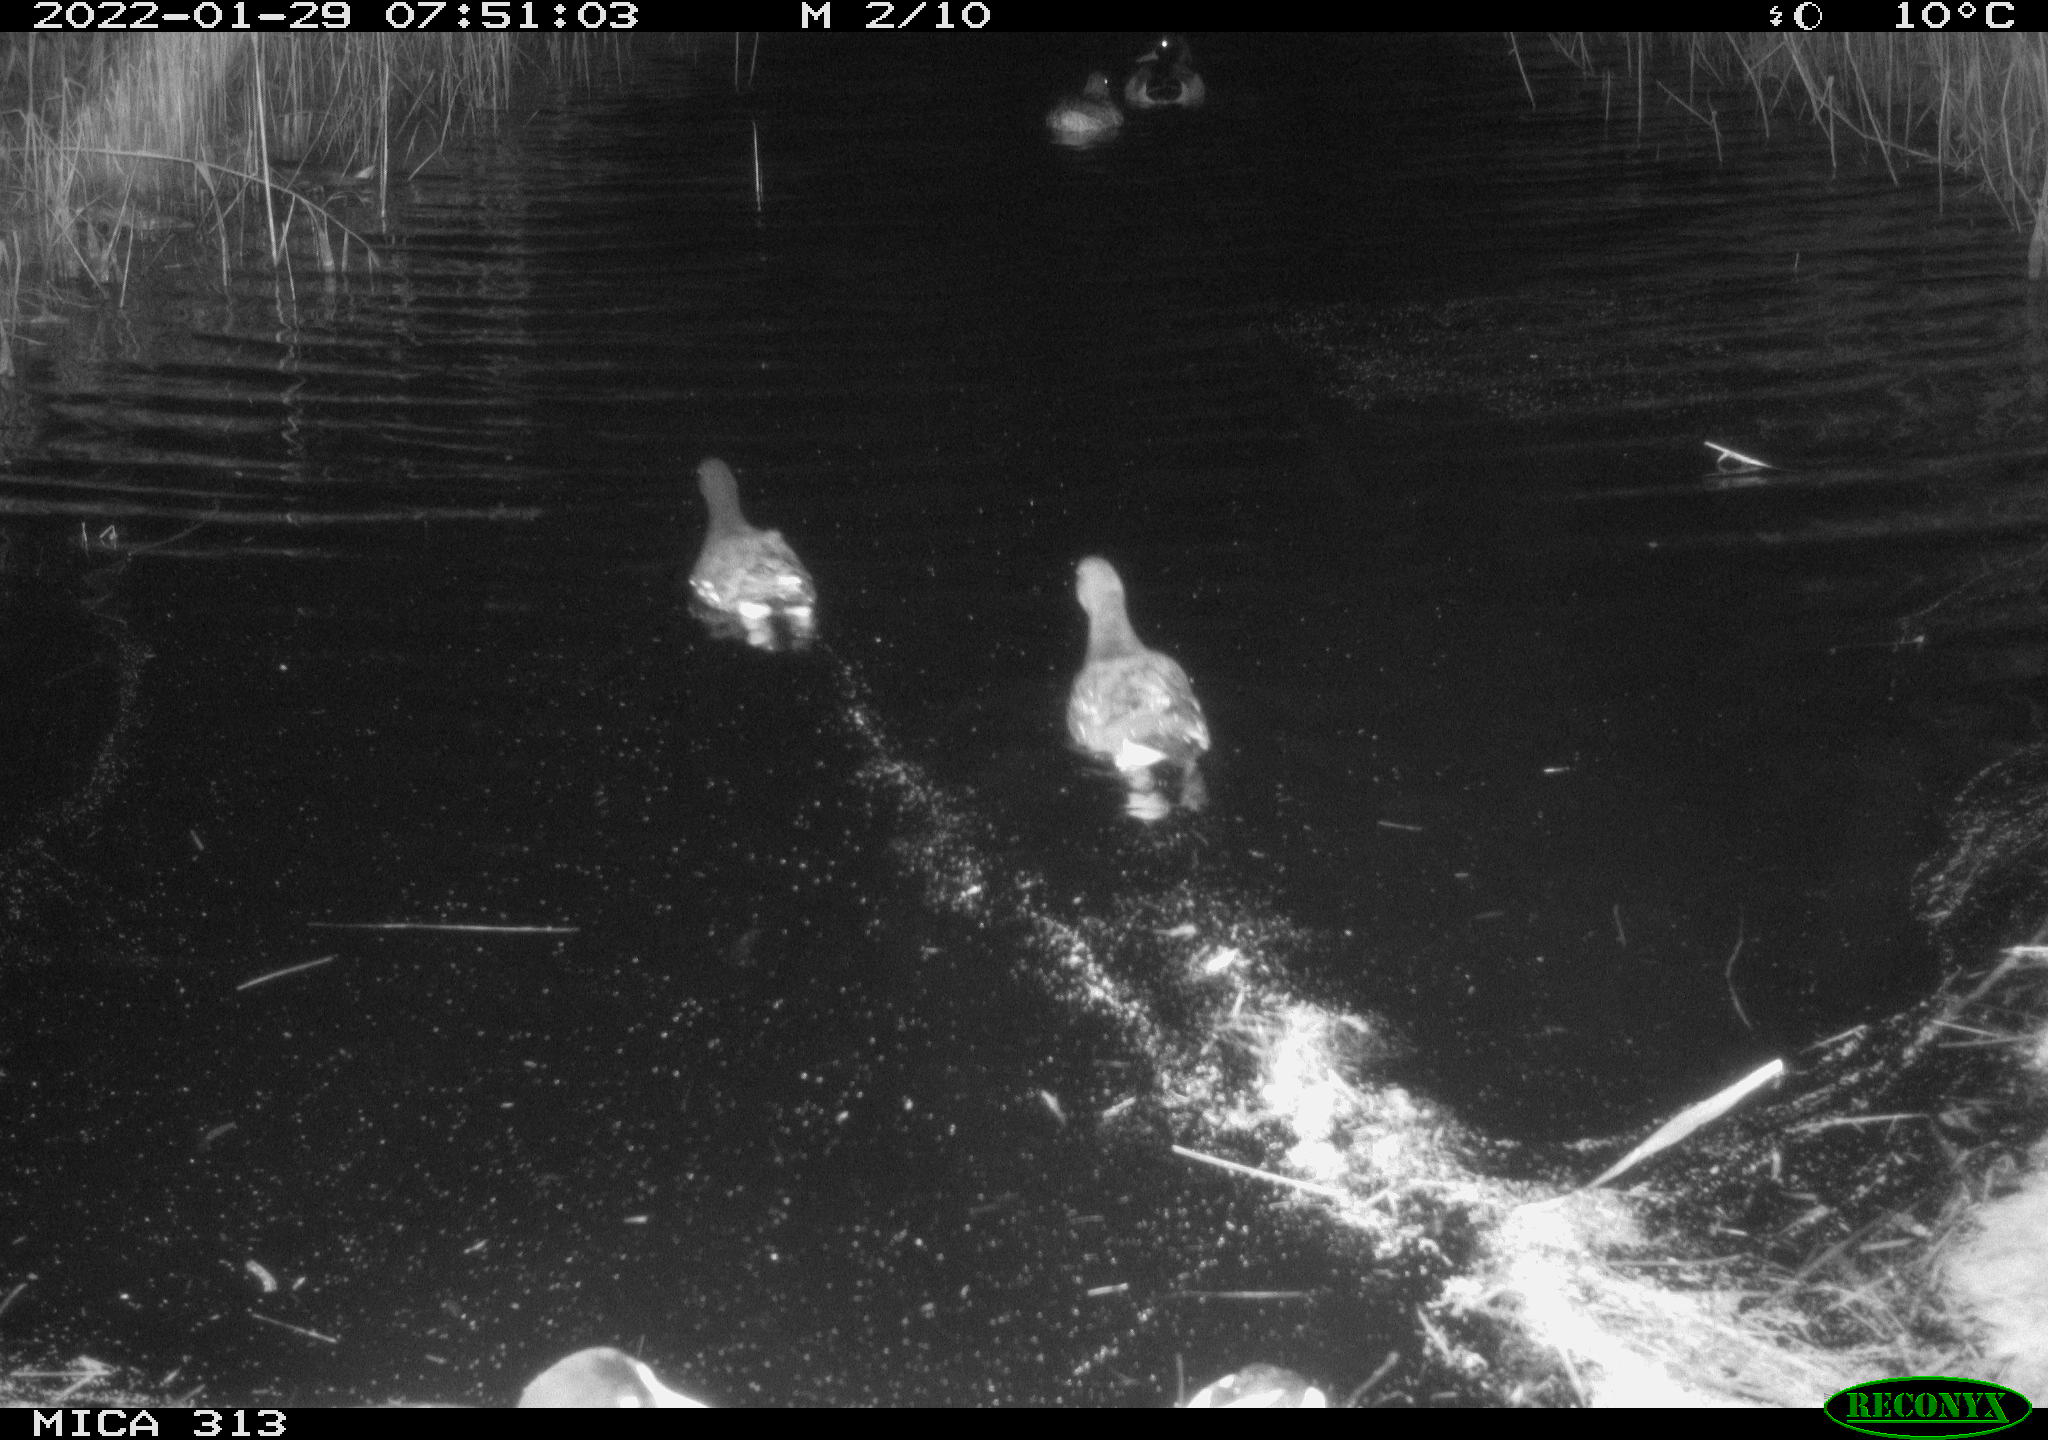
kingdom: Animalia
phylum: Chordata
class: Aves
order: Anseriformes
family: Anatidae
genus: Anas
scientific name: Anas
